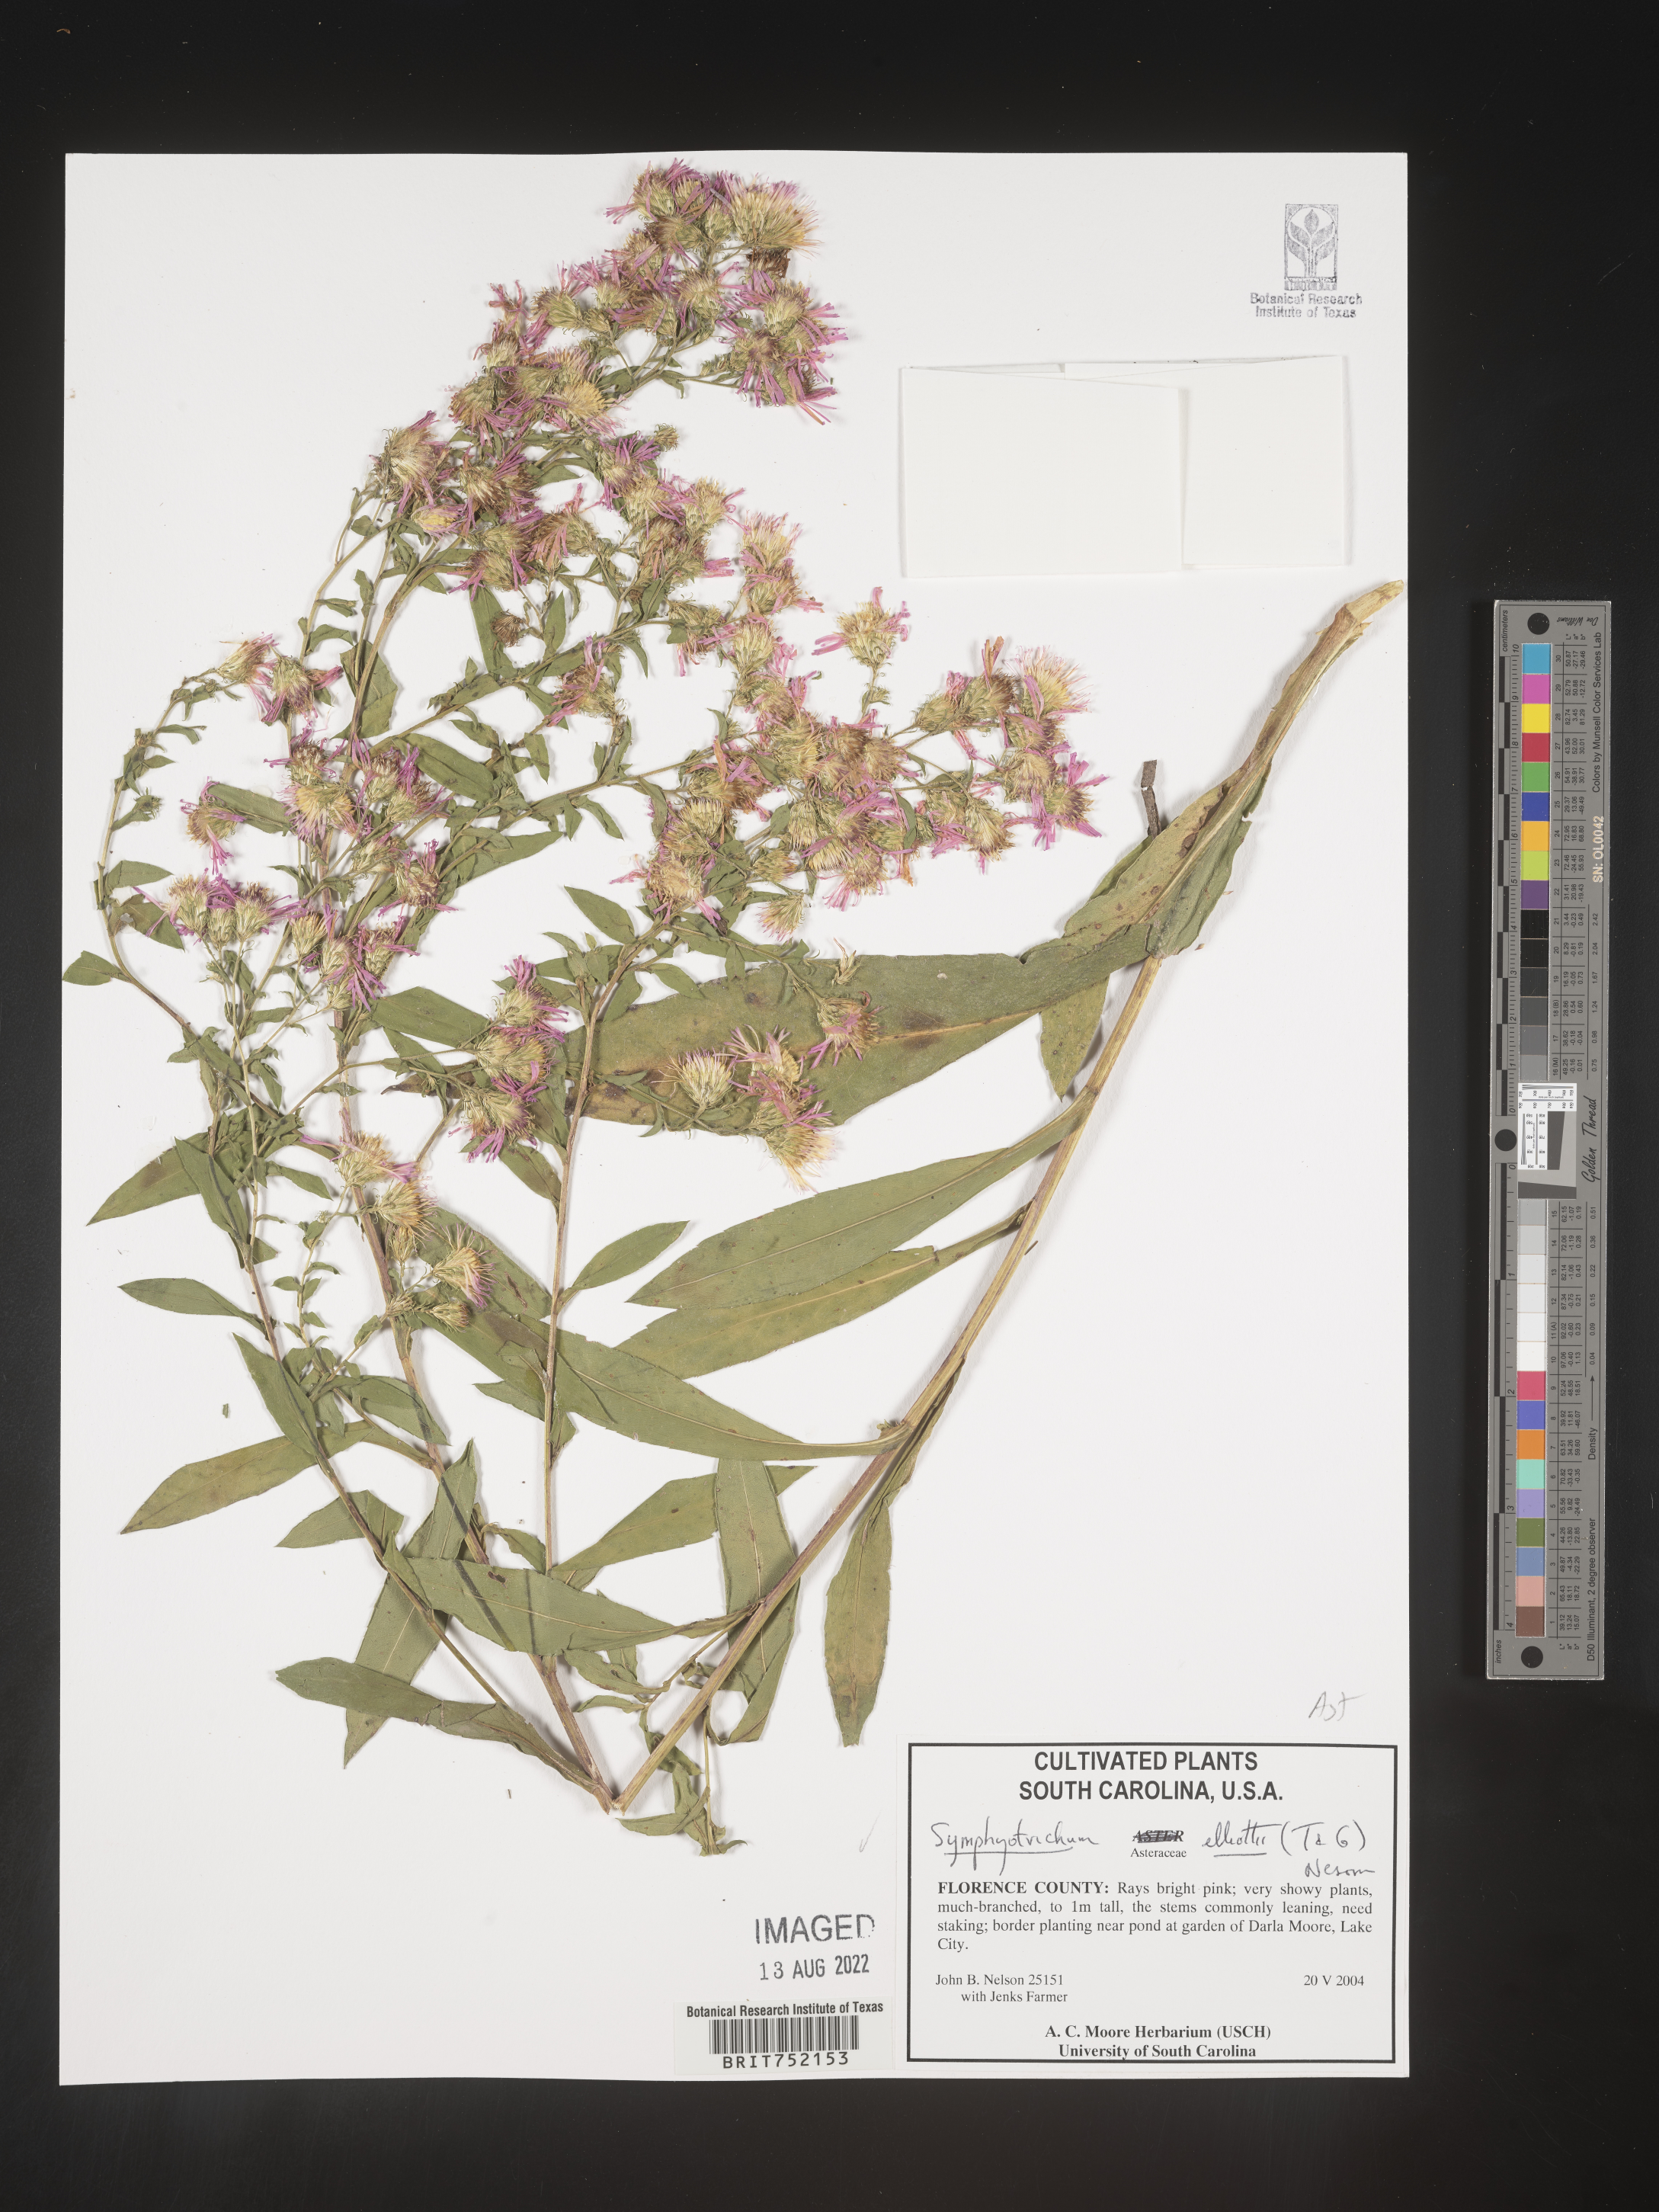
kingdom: Plantae
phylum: Tracheophyta
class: Magnoliopsida
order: Asterales
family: Asteraceae
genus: Symphyotrichum
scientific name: Symphyotrichum elliottii
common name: Southern swamp aster
